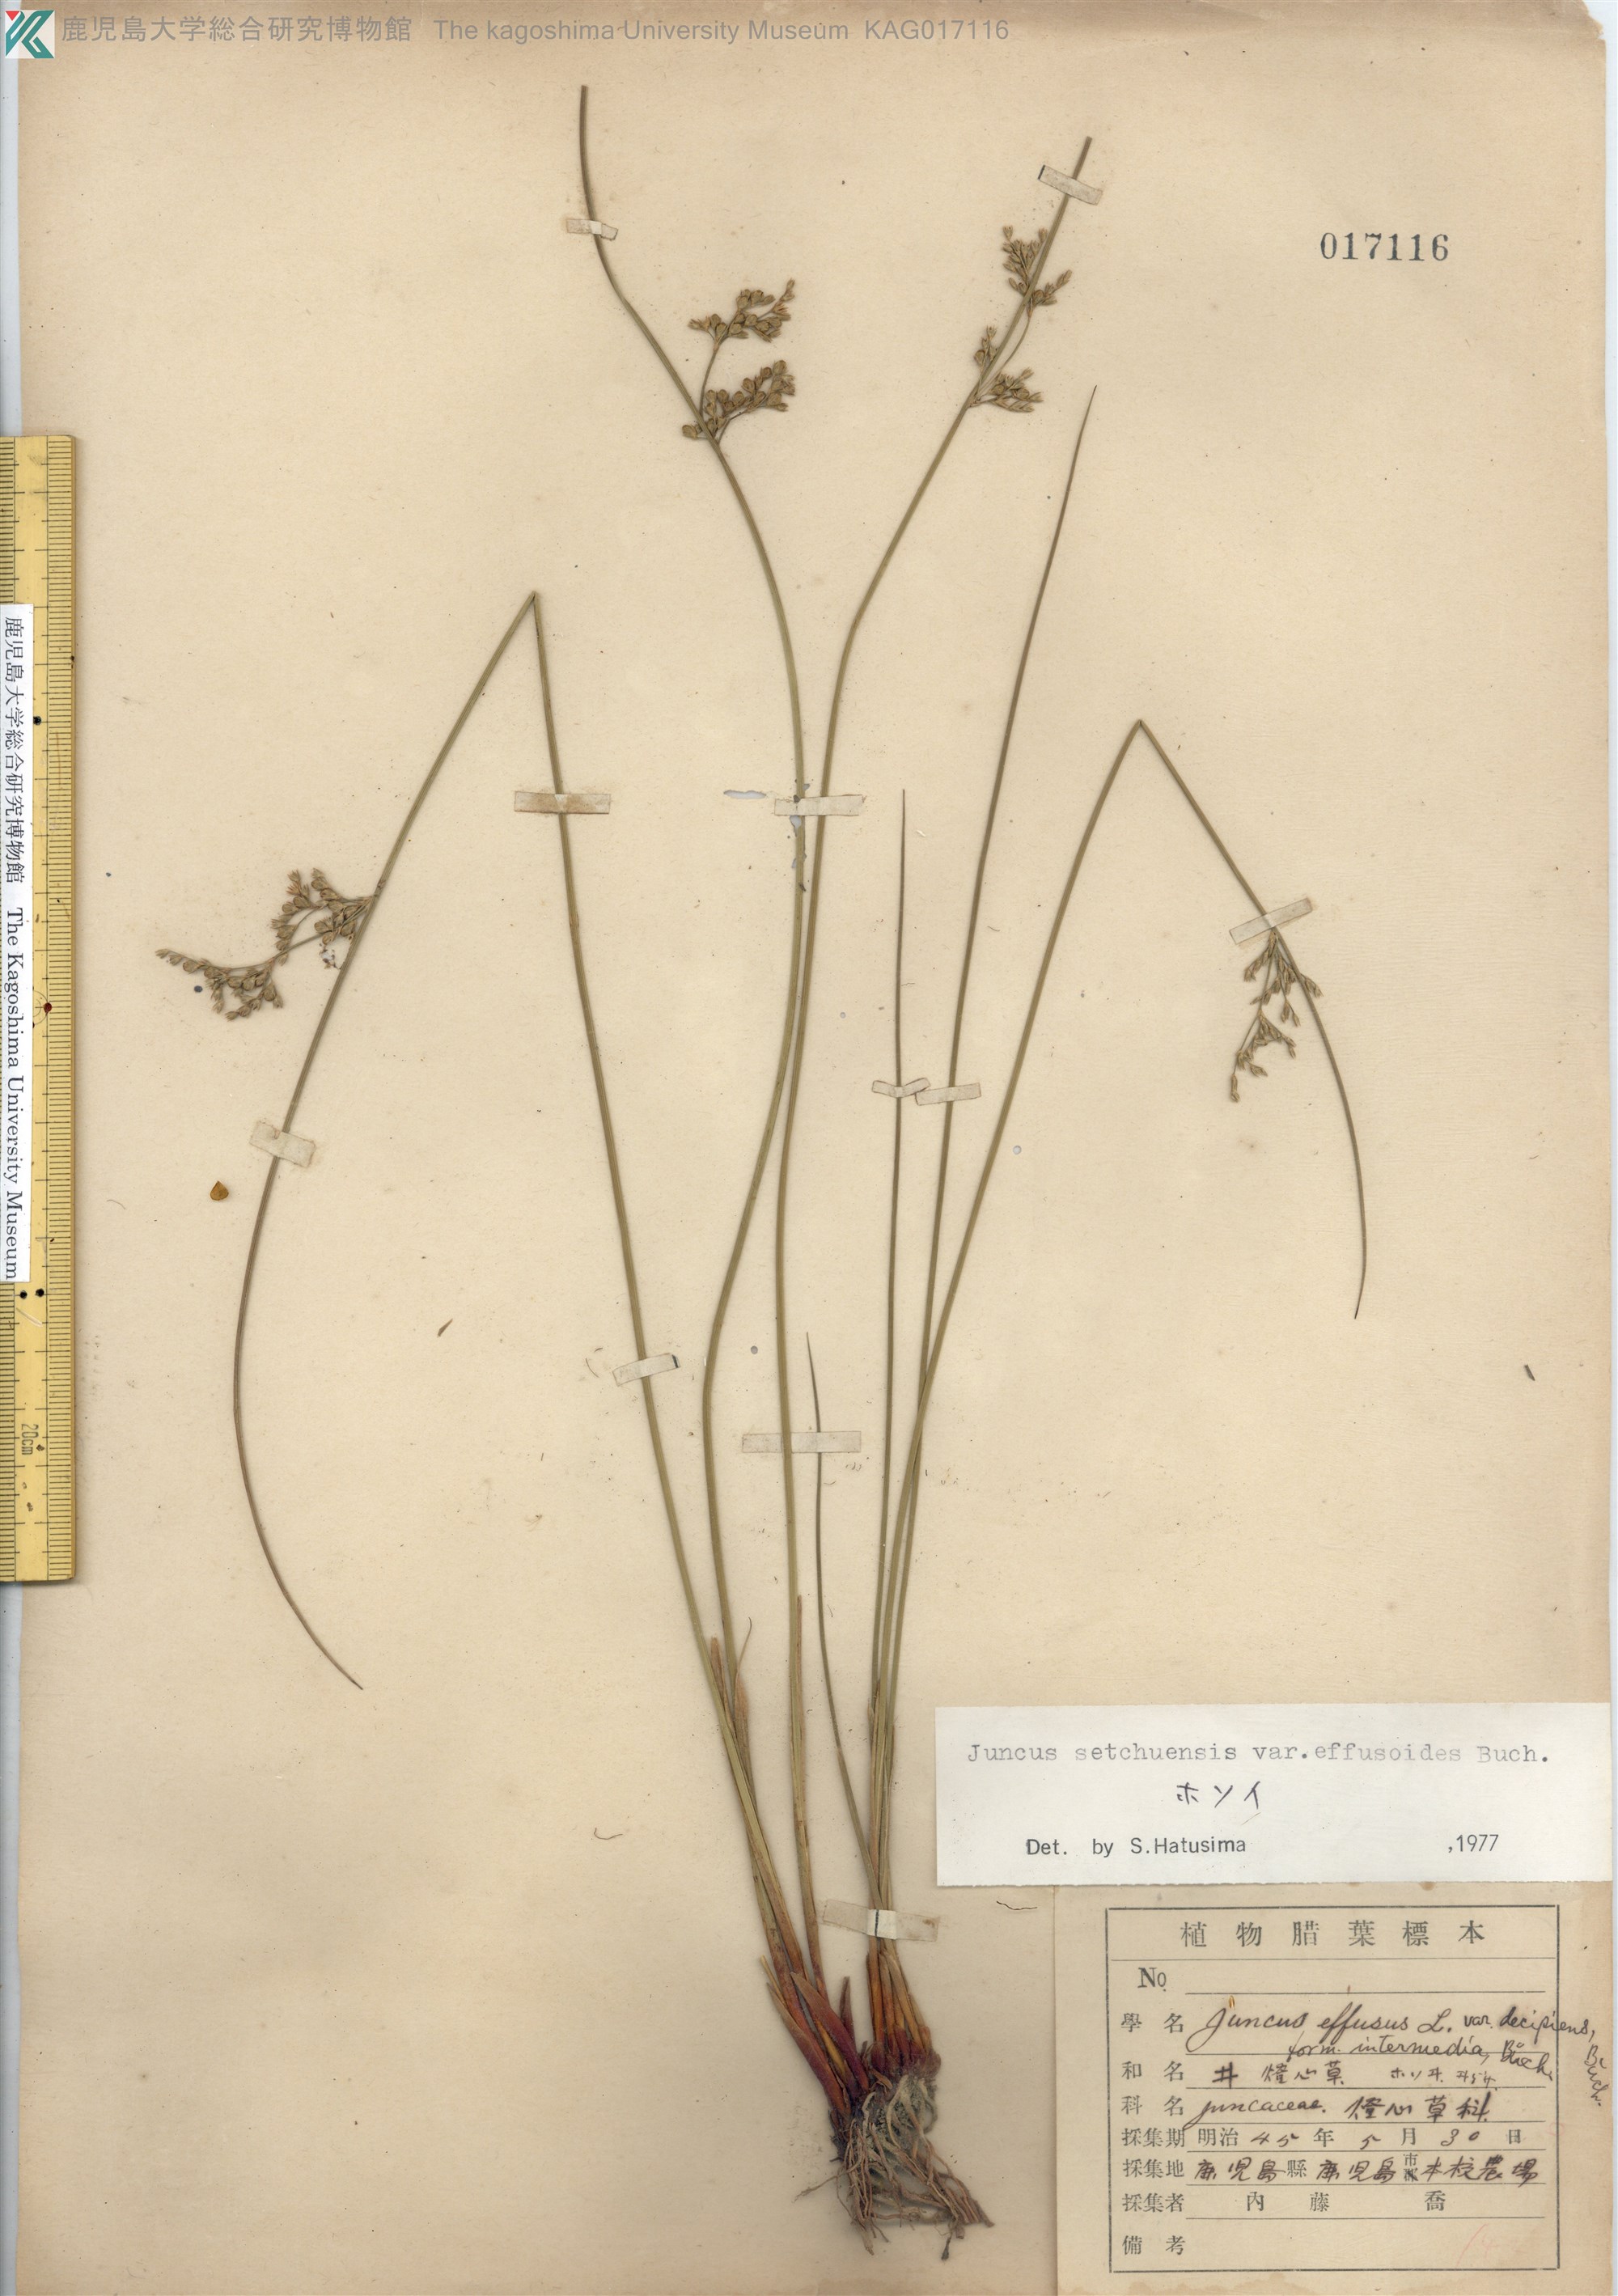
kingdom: Plantae
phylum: Tracheophyta
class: Liliopsida
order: Poales
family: Juncaceae
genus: Juncus
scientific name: Juncus setchuensis
